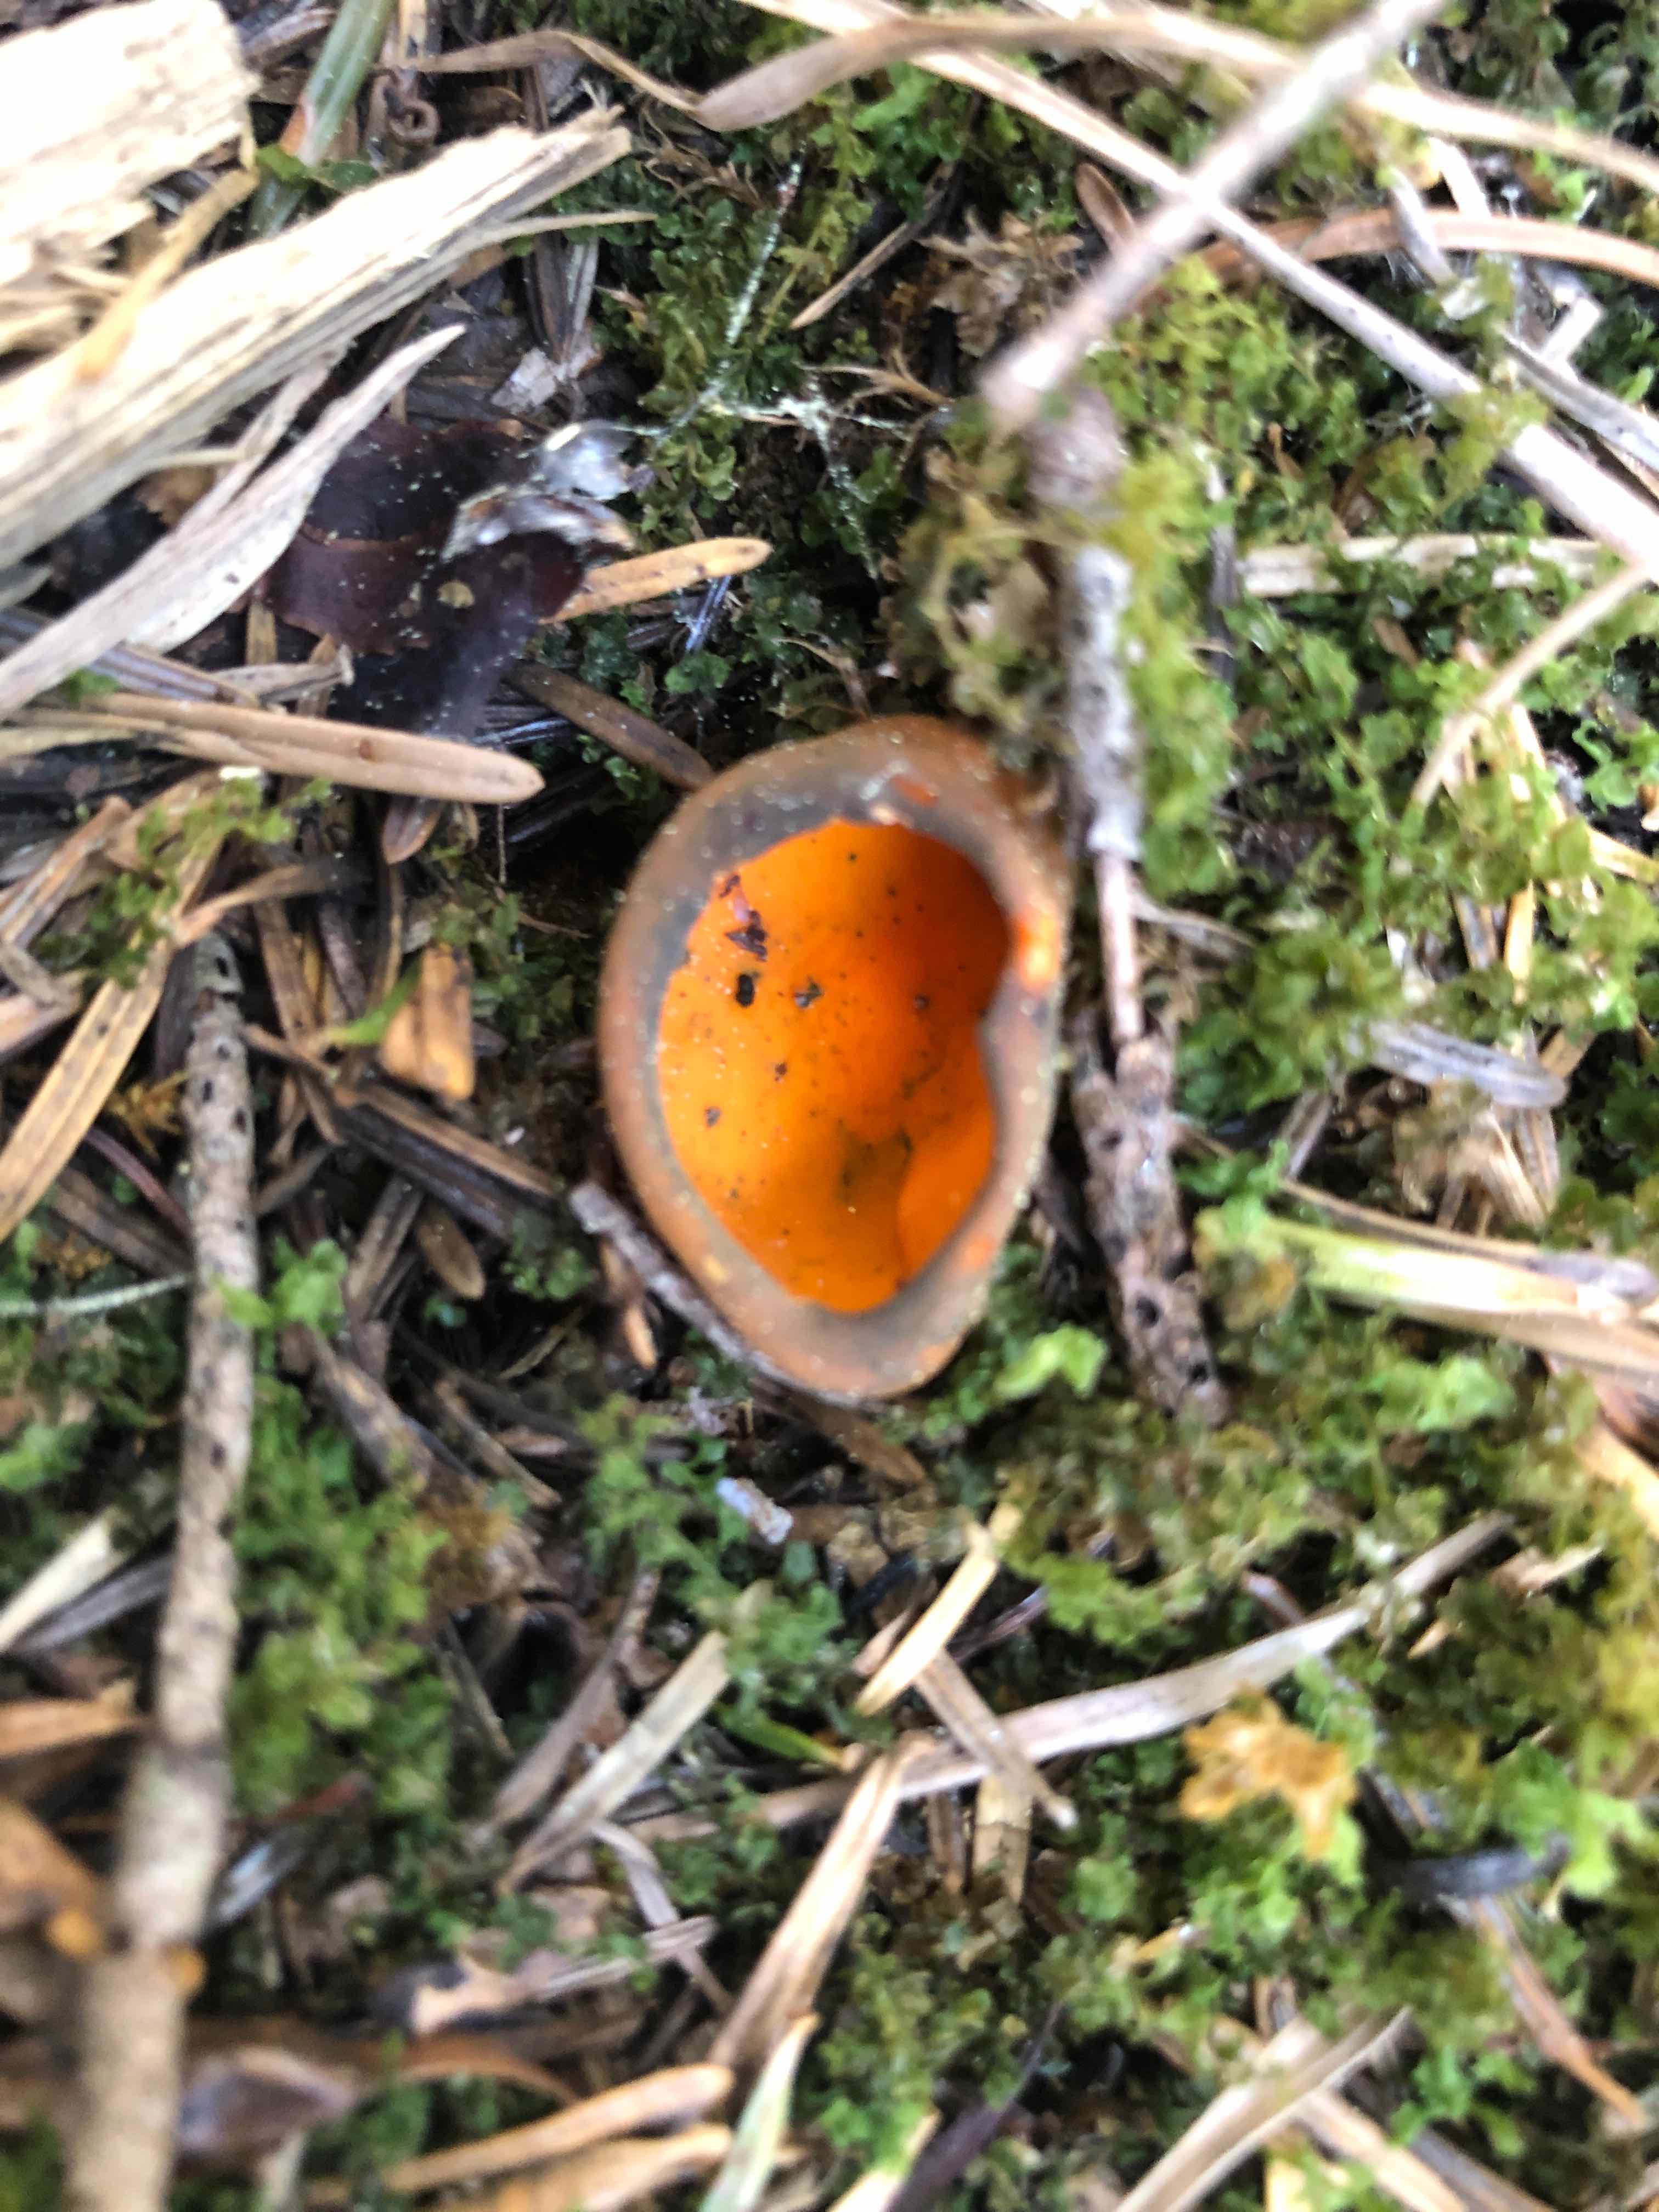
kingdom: Fungi
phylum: Ascomycota
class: Pezizomycetes
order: Pezizales
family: Caloscyphaceae
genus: Caloscypha
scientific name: Caloscypha fulgens
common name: jadebæger
